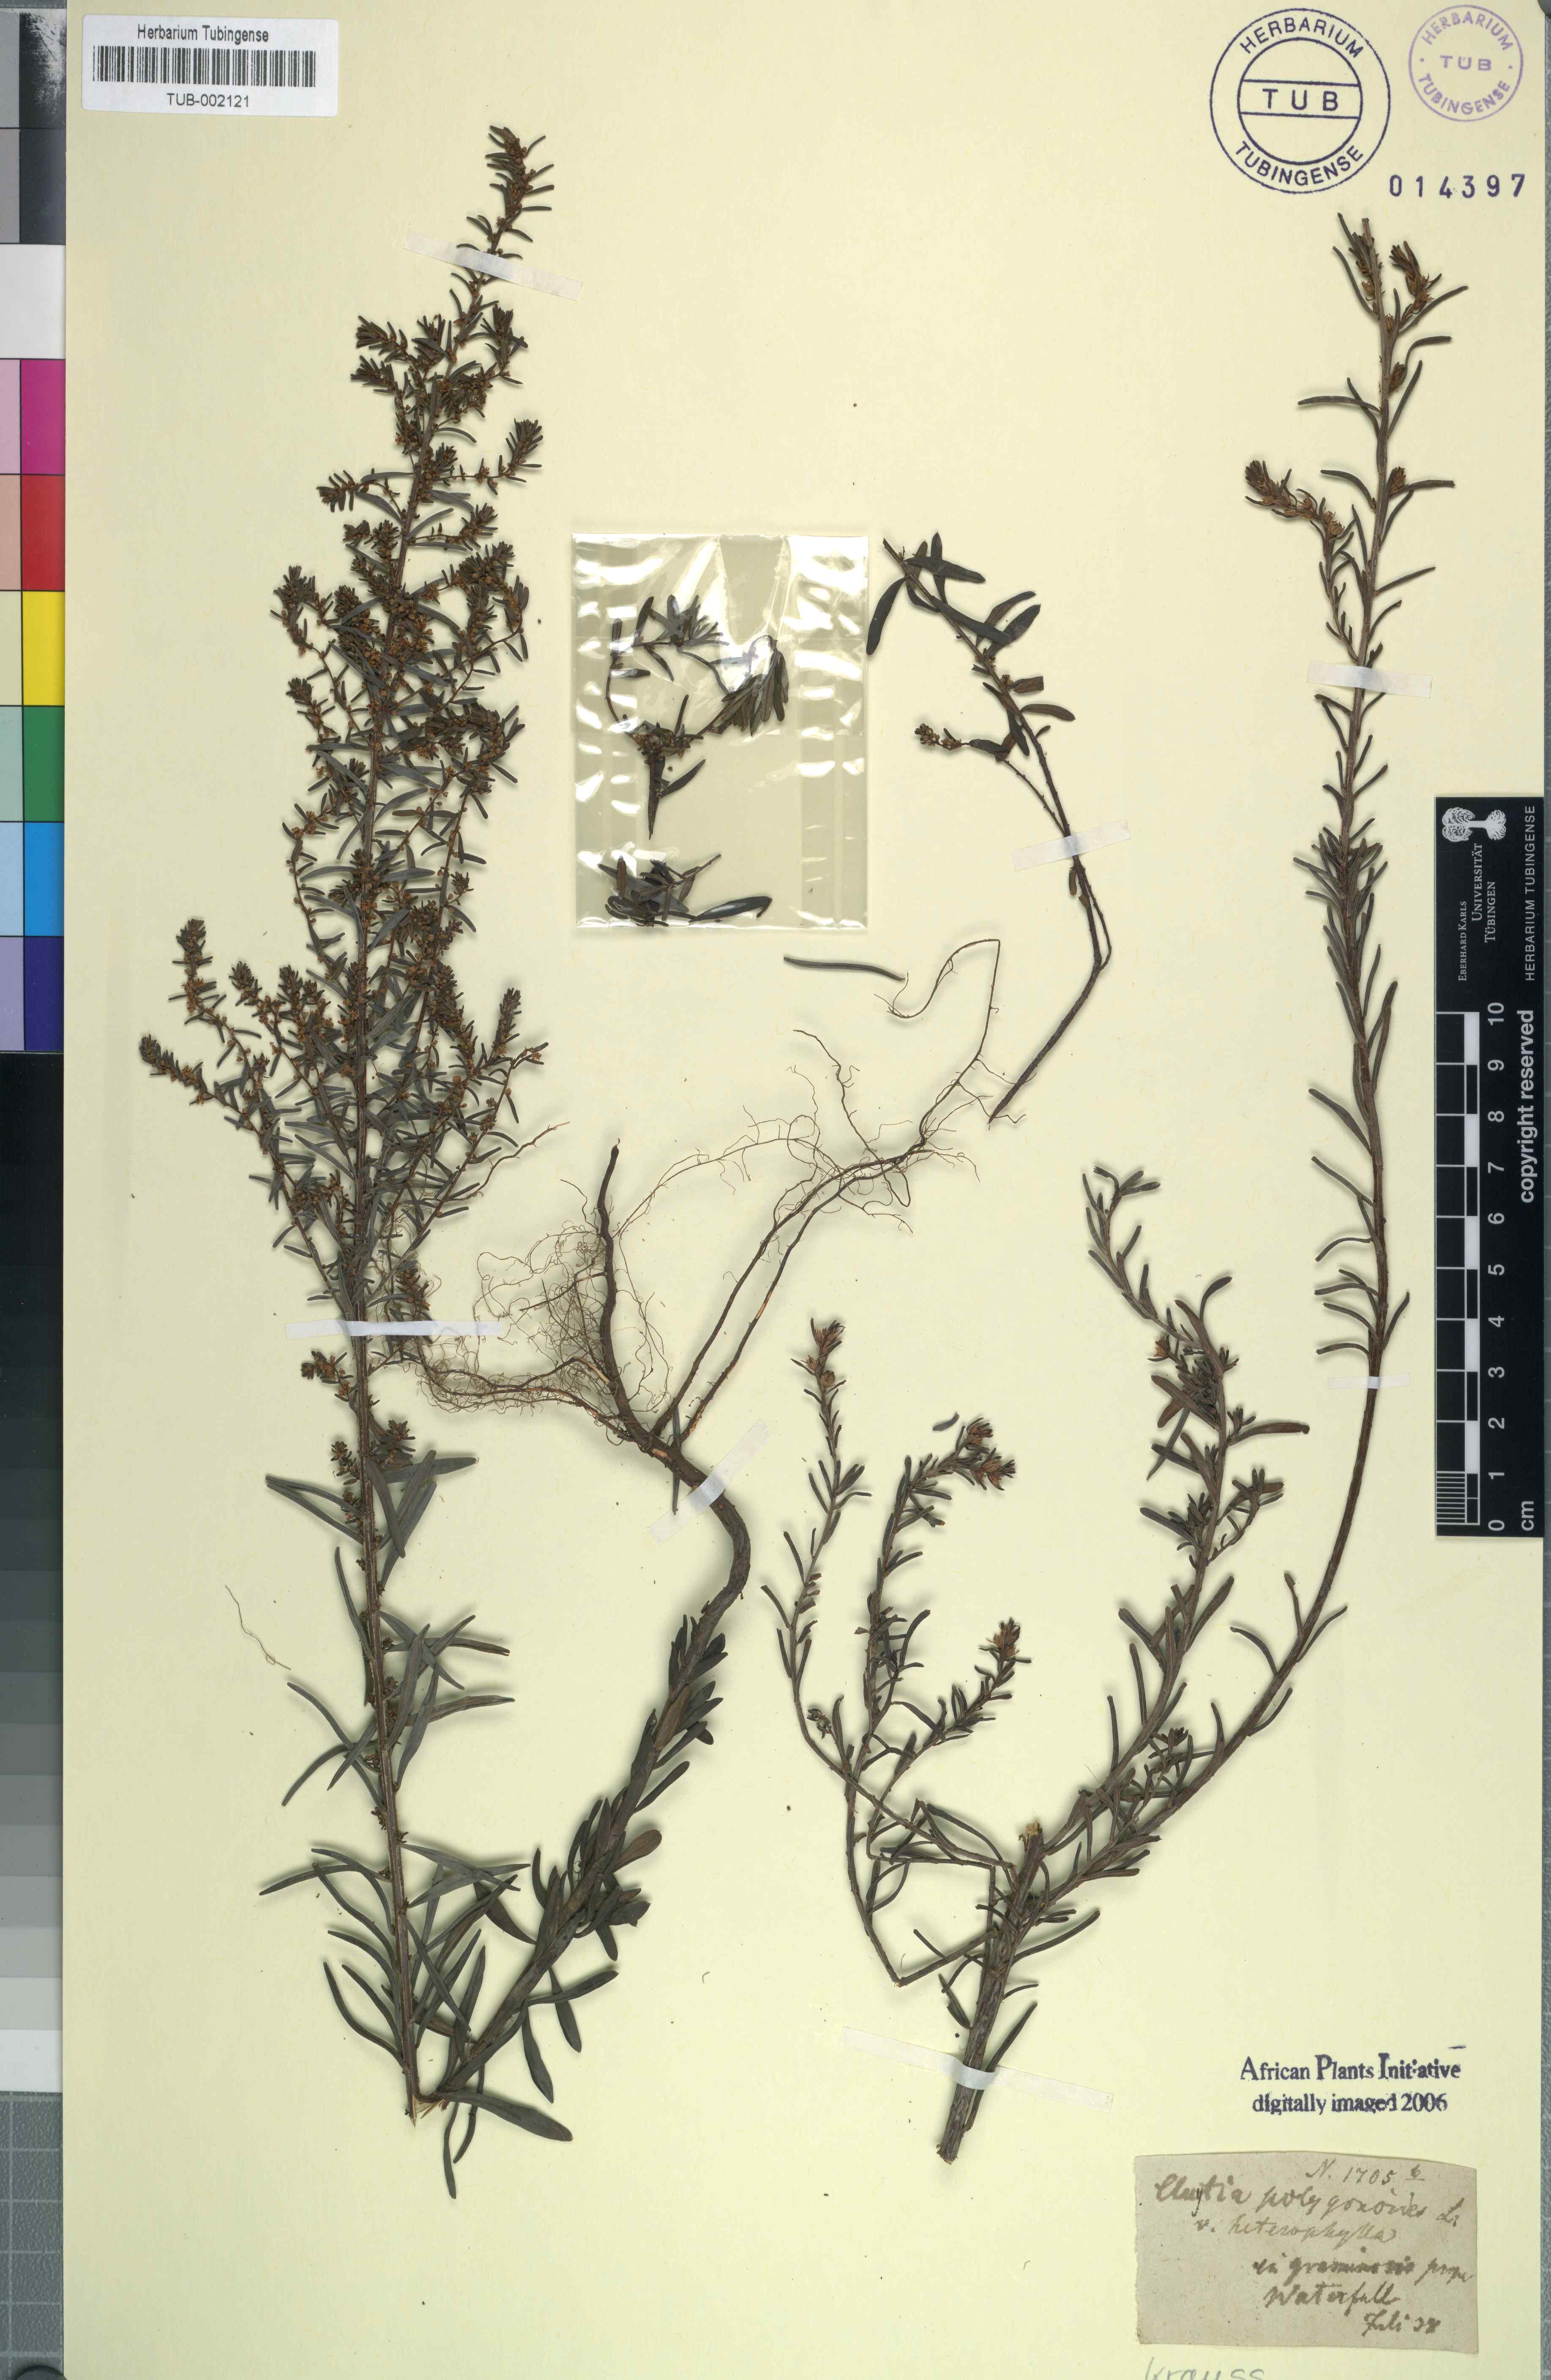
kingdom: Plantae
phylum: Tracheophyta
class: Magnoliopsida
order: Malpighiales
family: Peraceae
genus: Clutia
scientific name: Clutia polygonoides
